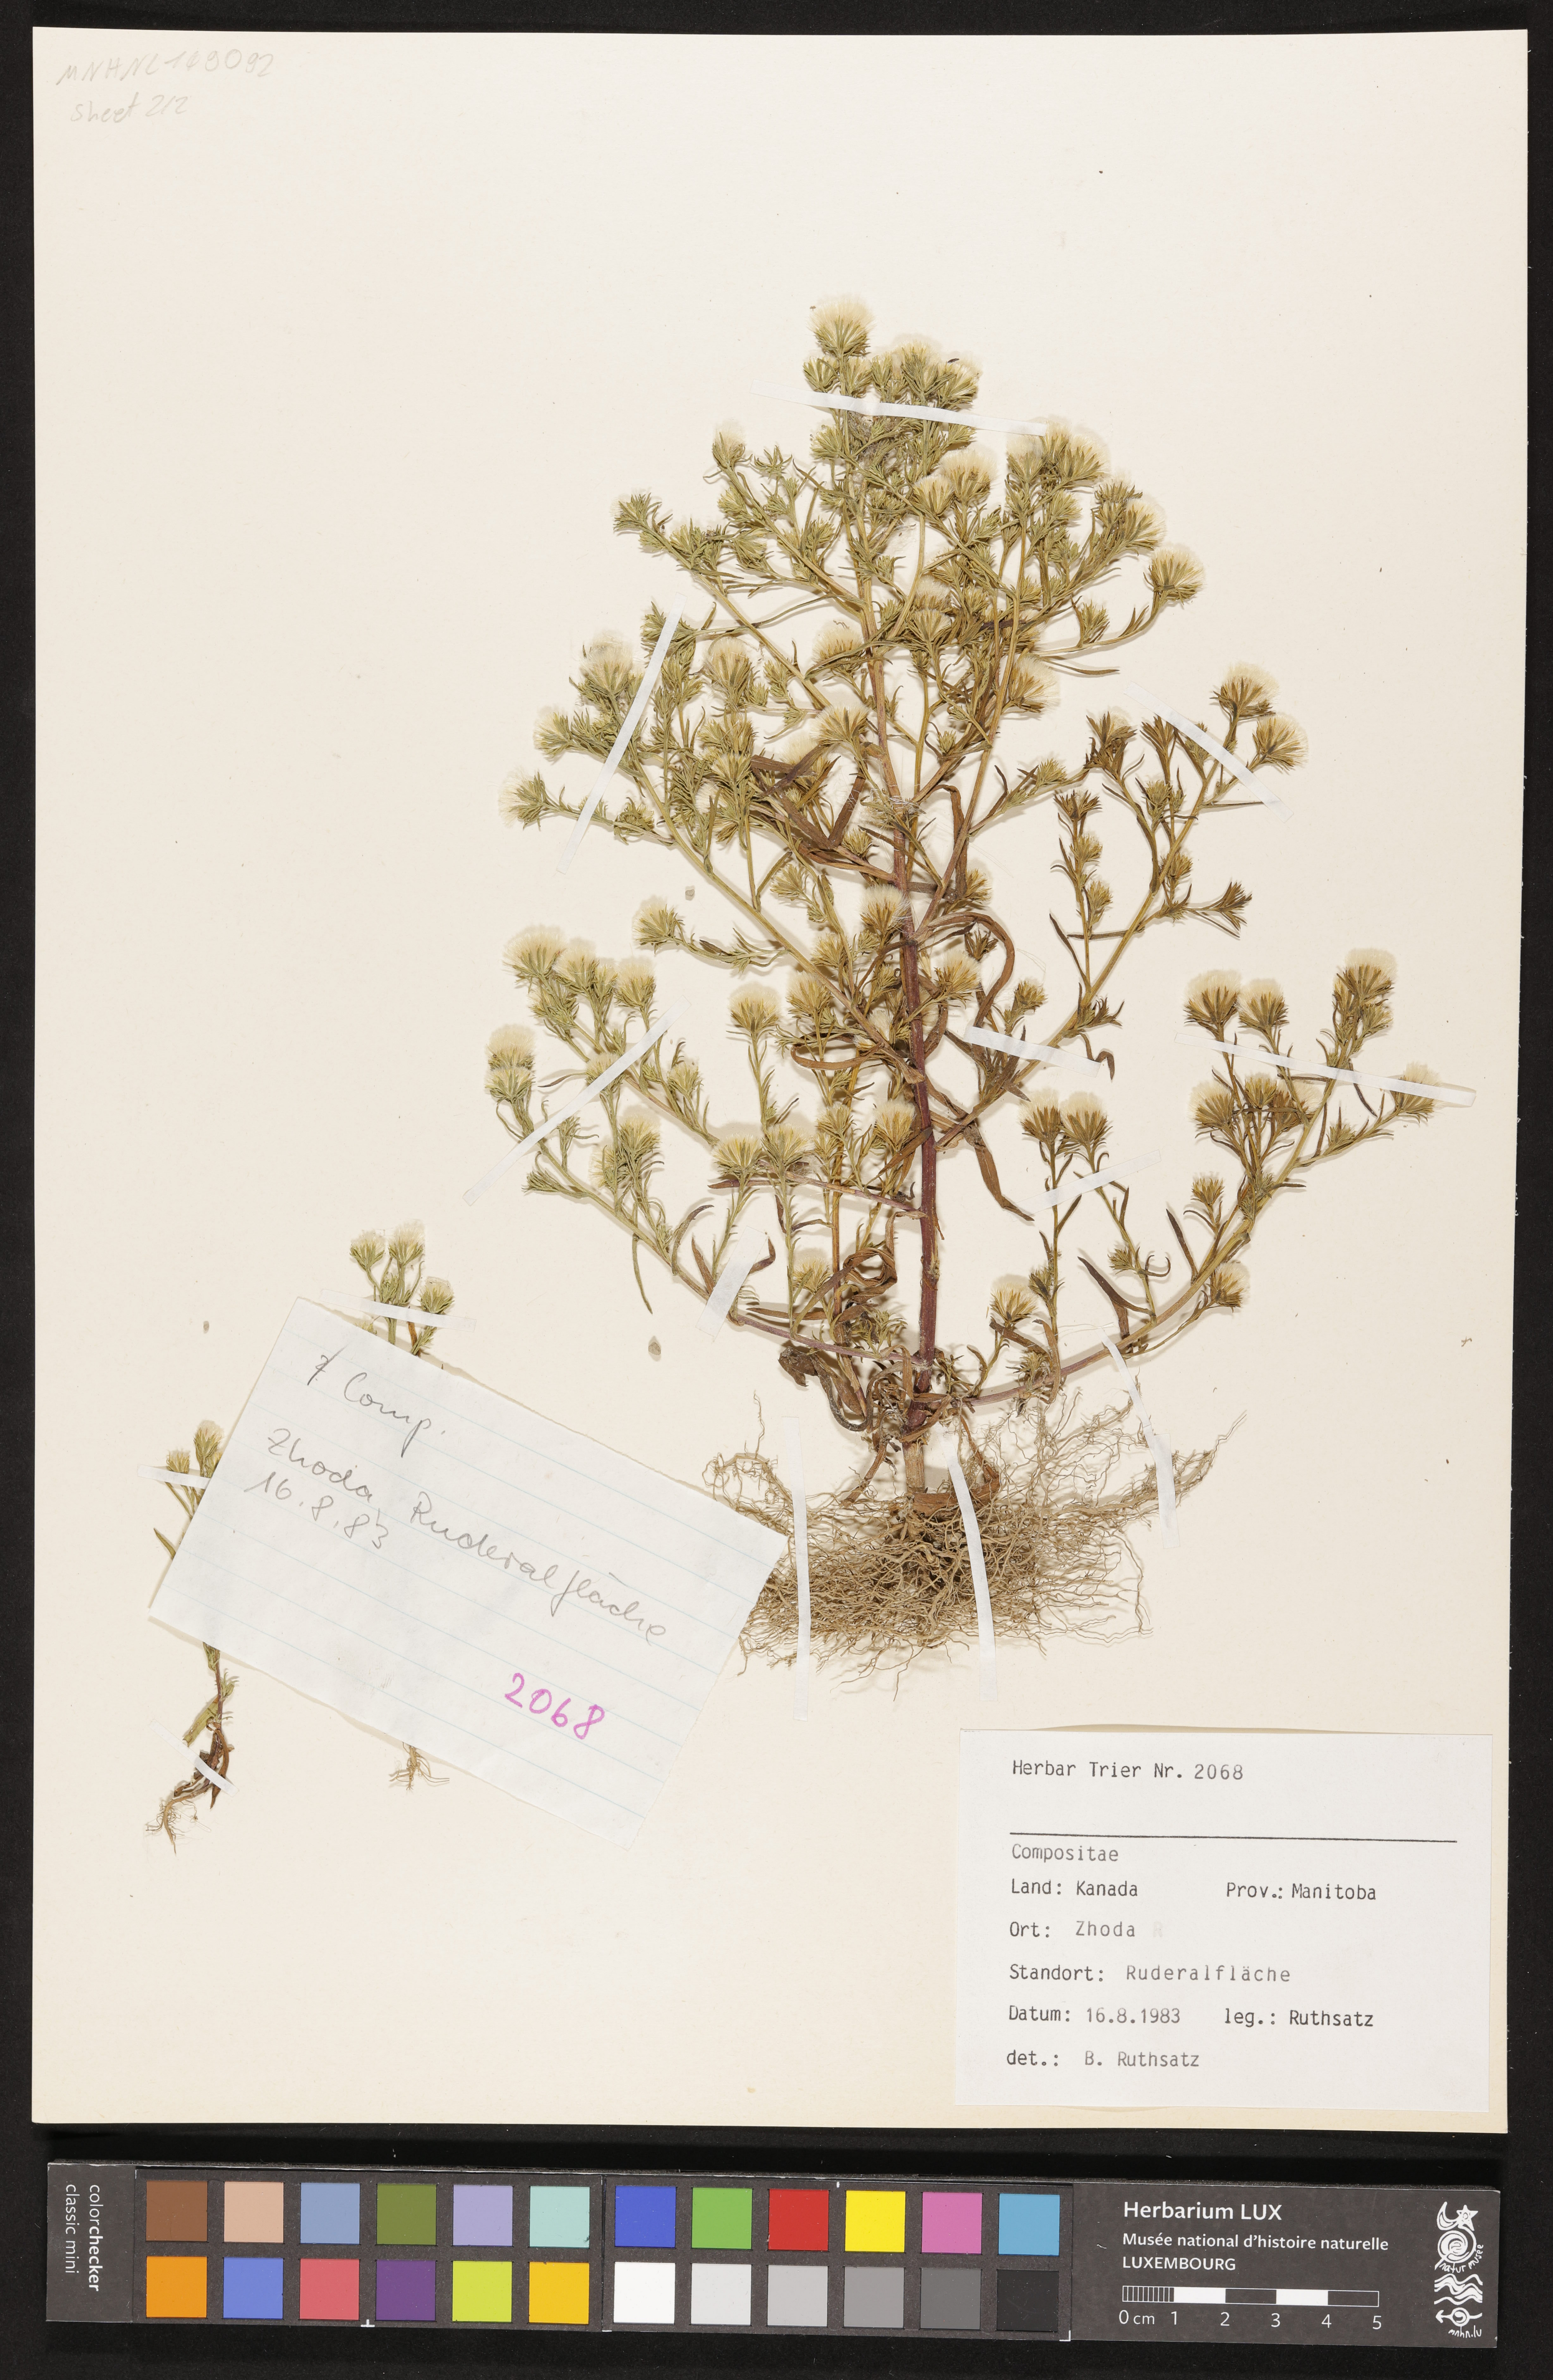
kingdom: Plantae
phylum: Tracheophyta
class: Magnoliopsida
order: Asterales
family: Asteraceae
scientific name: Asteraceae
